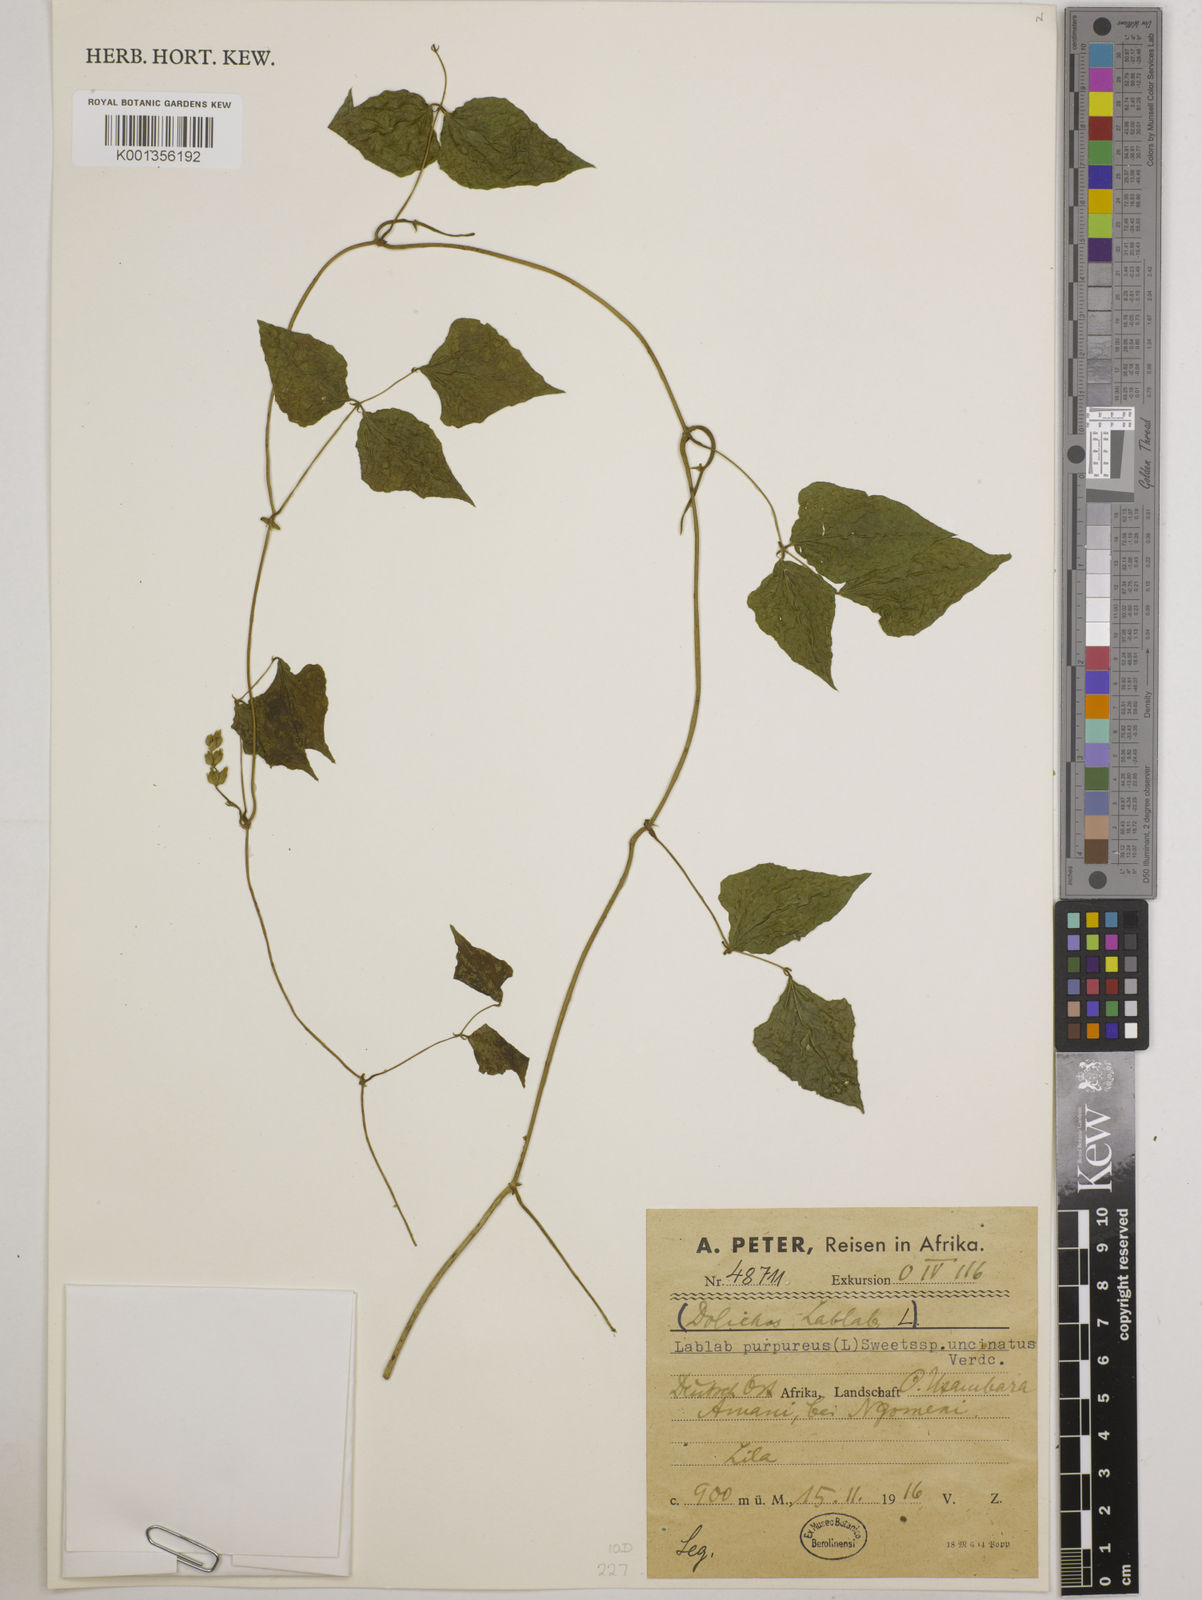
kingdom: Plantae
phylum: Tracheophyta
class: Magnoliopsida
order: Fabales
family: Fabaceae
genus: Lablab
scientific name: Lablab purpureus
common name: Lablab-bean
